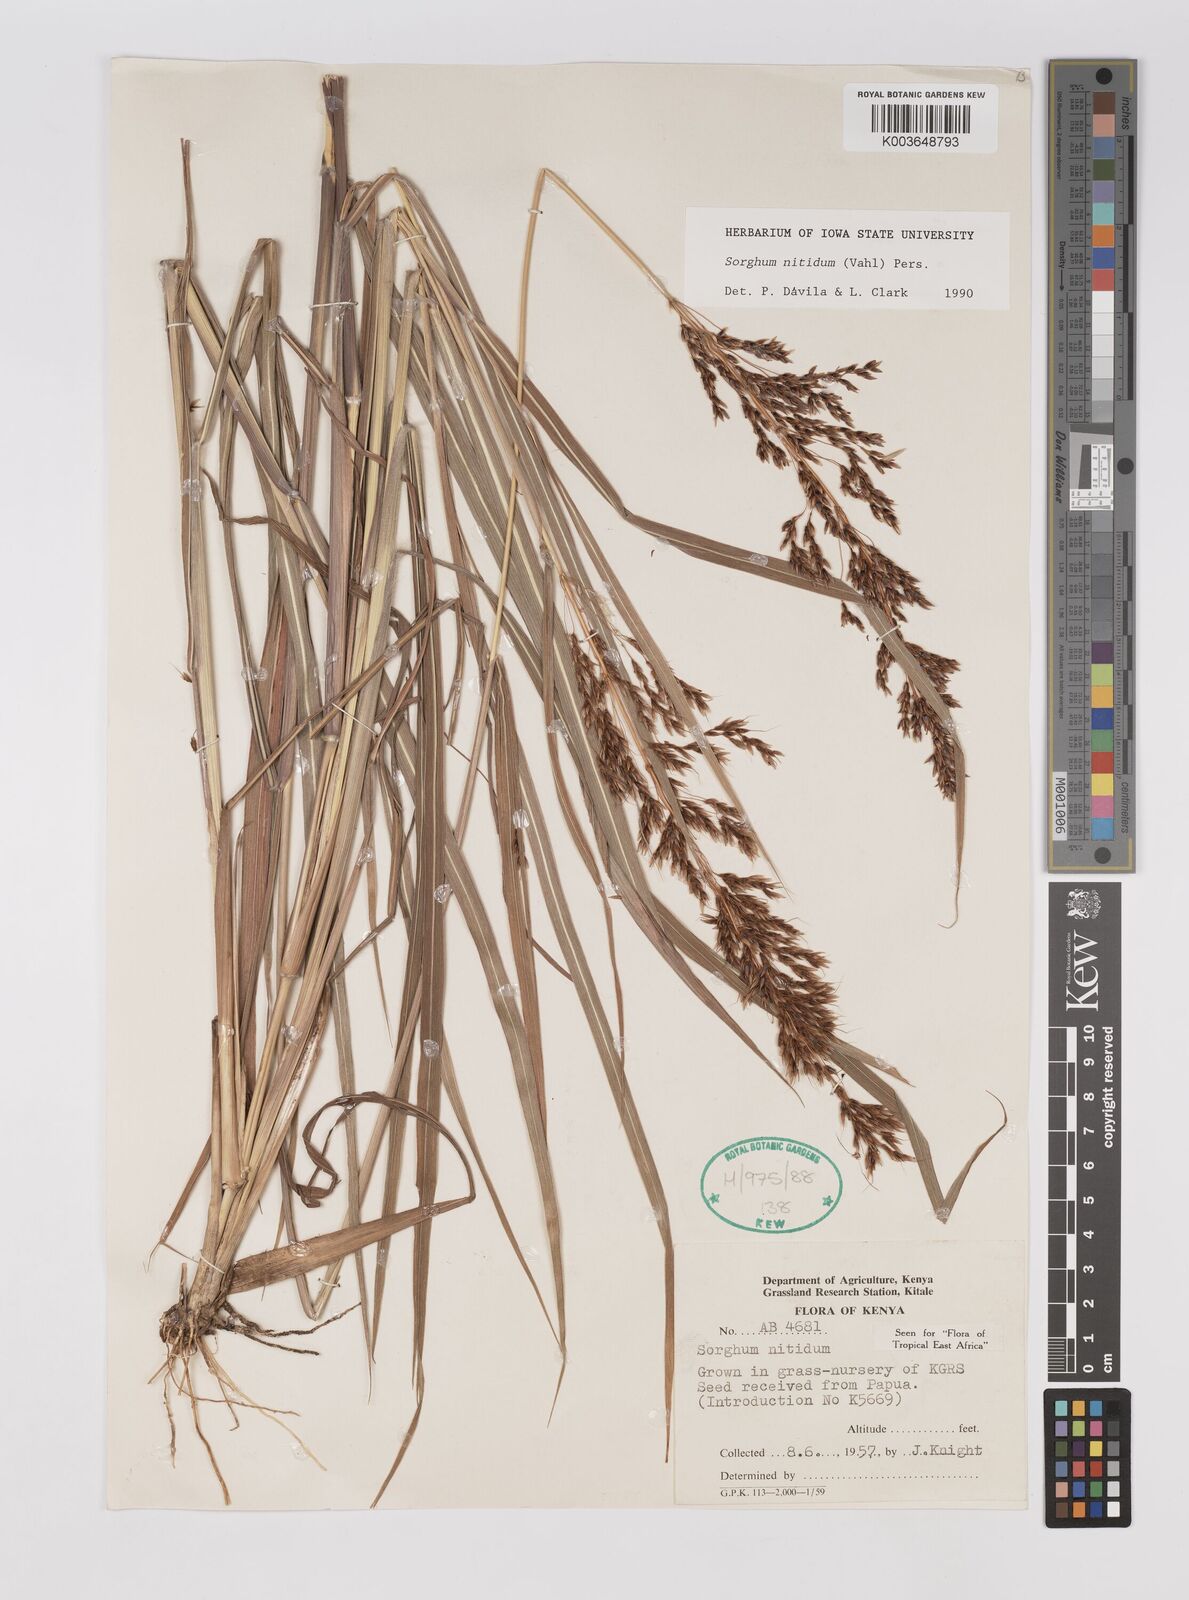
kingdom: Plantae
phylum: Tracheophyta
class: Liliopsida
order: Poales
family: Poaceae
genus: Sorghum
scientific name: Sorghum nitidum
